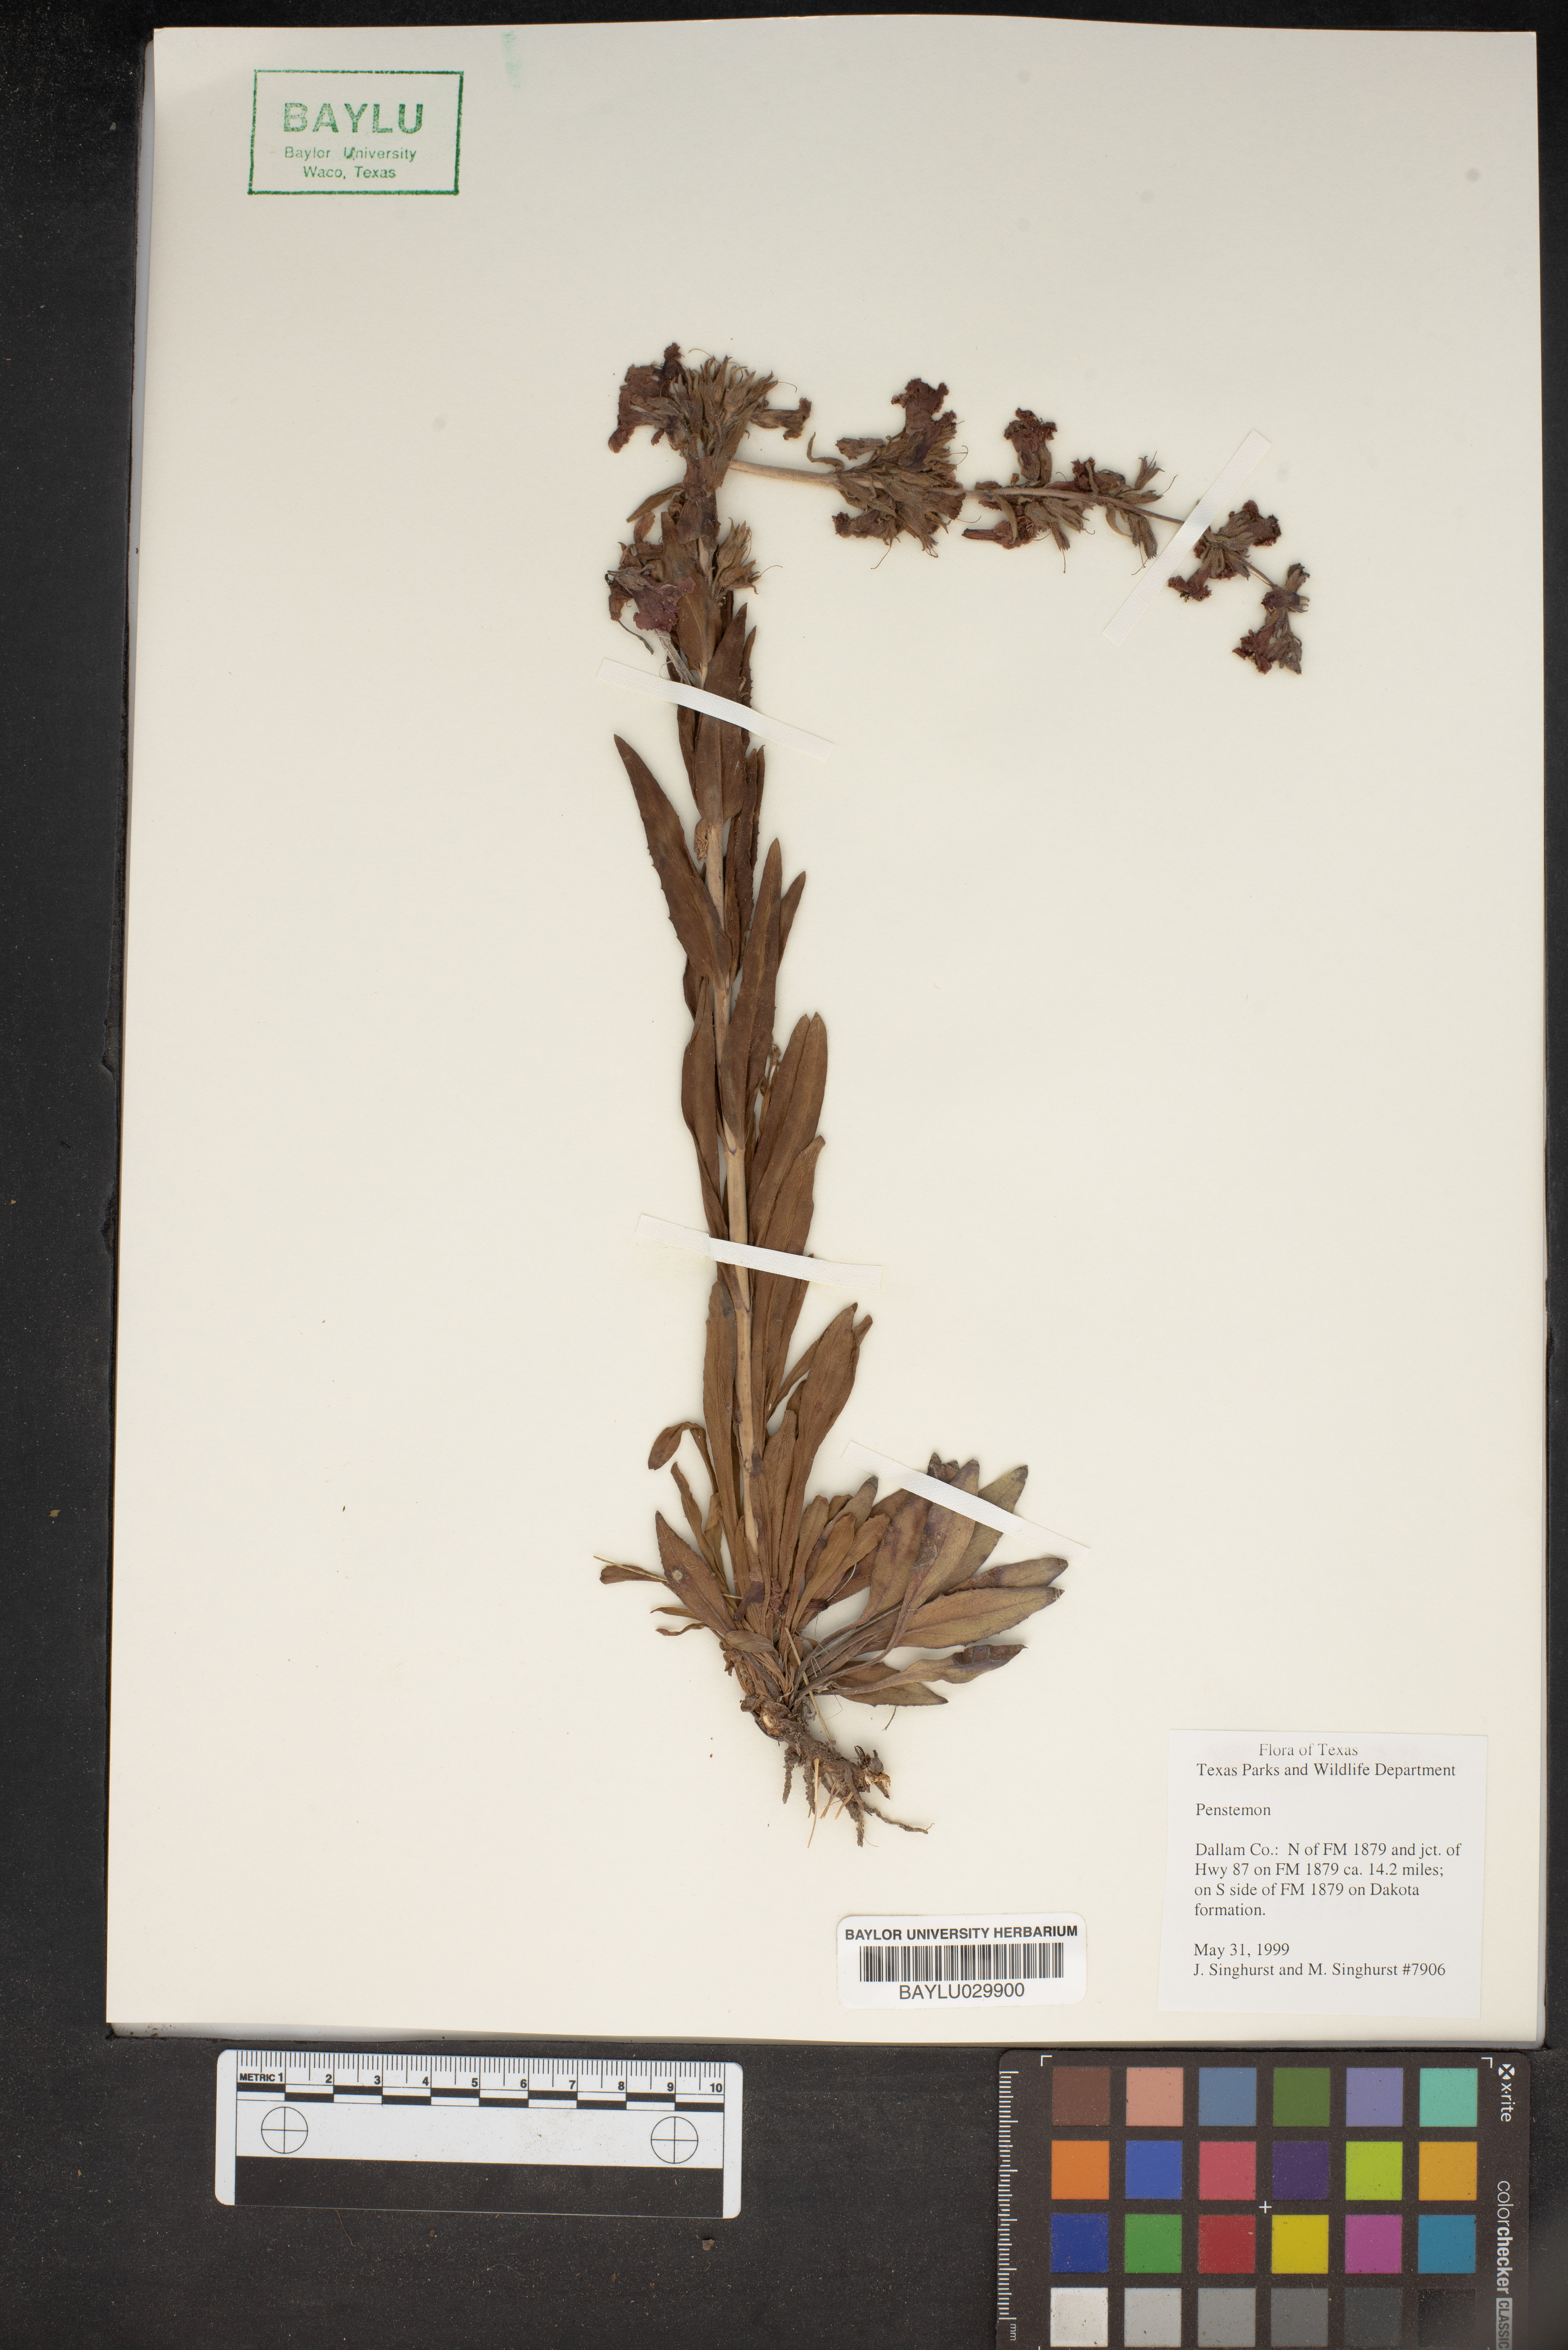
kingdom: Plantae
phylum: Tracheophyta
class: Magnoliopsida
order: Lamiales
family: Plantaginaceae
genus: Penstemon
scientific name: Penstemon
